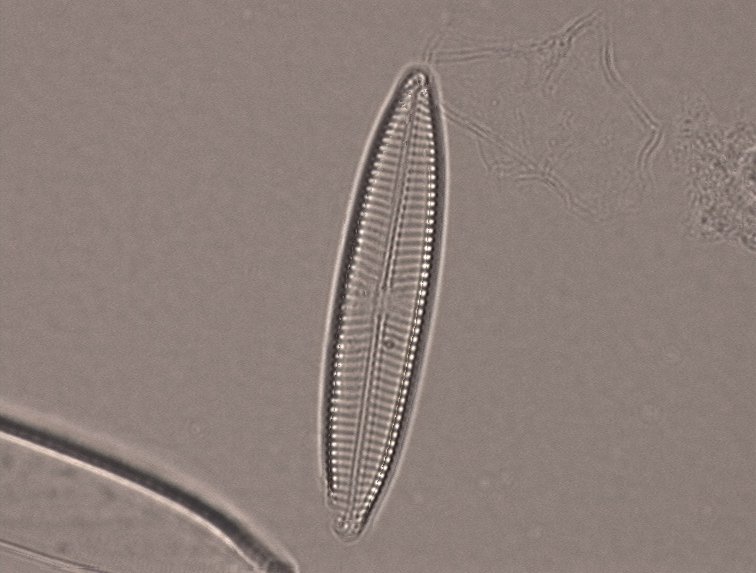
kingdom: Chromista
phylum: Ochrophyta
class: Bacillariophyceae
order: Naviculales
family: Naviculaceae
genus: Navicula
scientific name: Navicula gracilis
